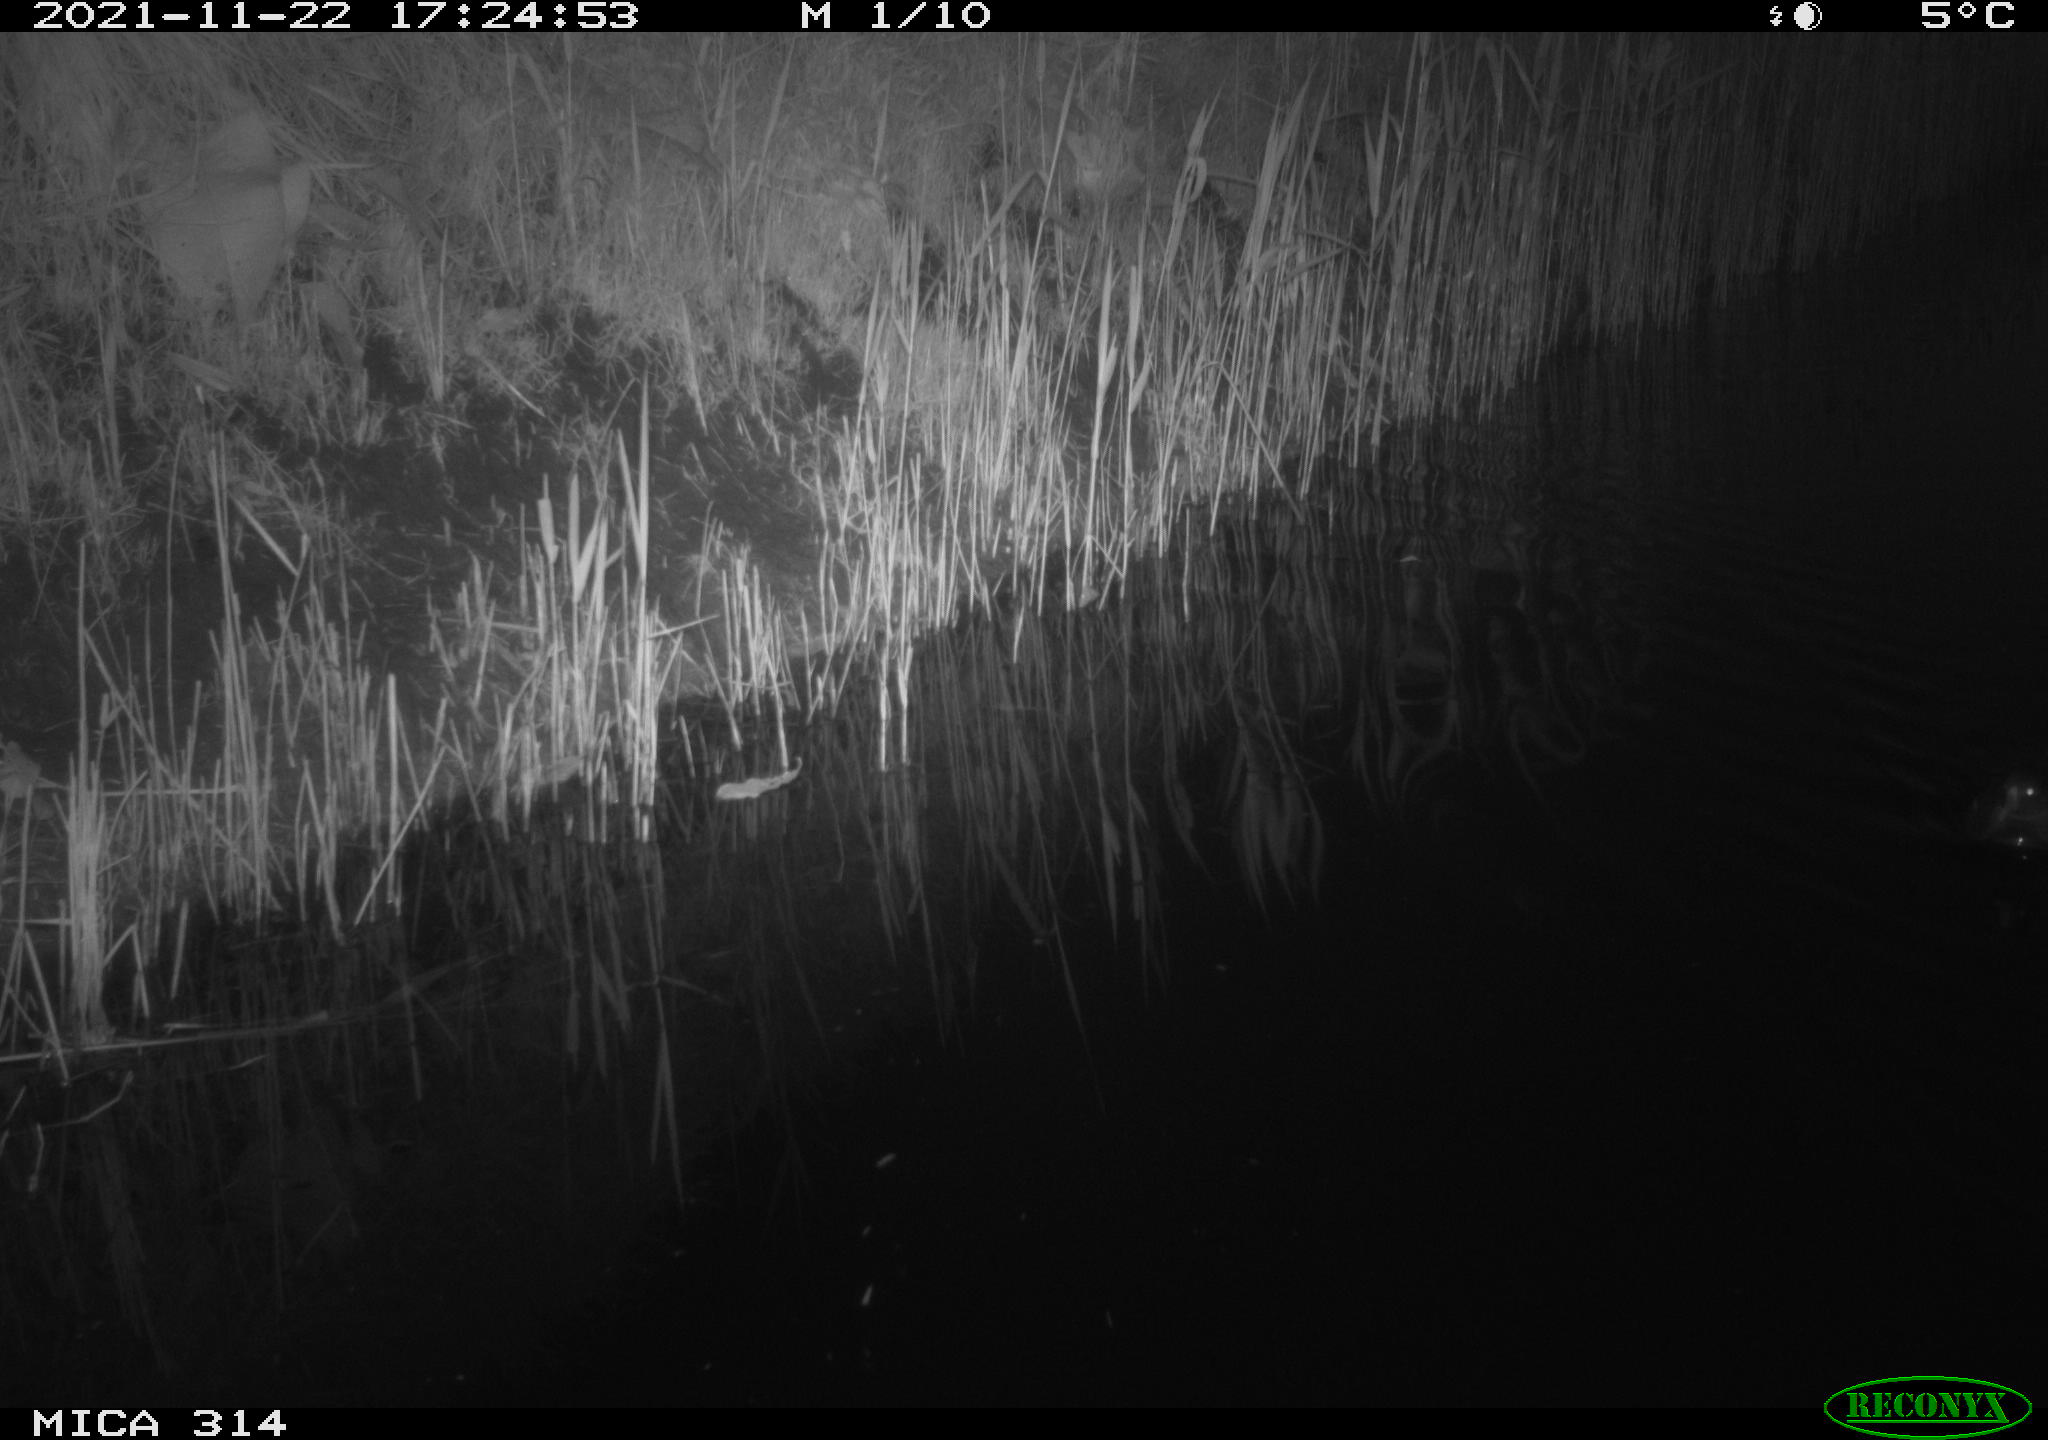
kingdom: Animalia
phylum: Chordata
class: Aves
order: Gruiformes
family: Rallidae
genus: Gallinula
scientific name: Gallinula chloropus
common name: Common moorhen
